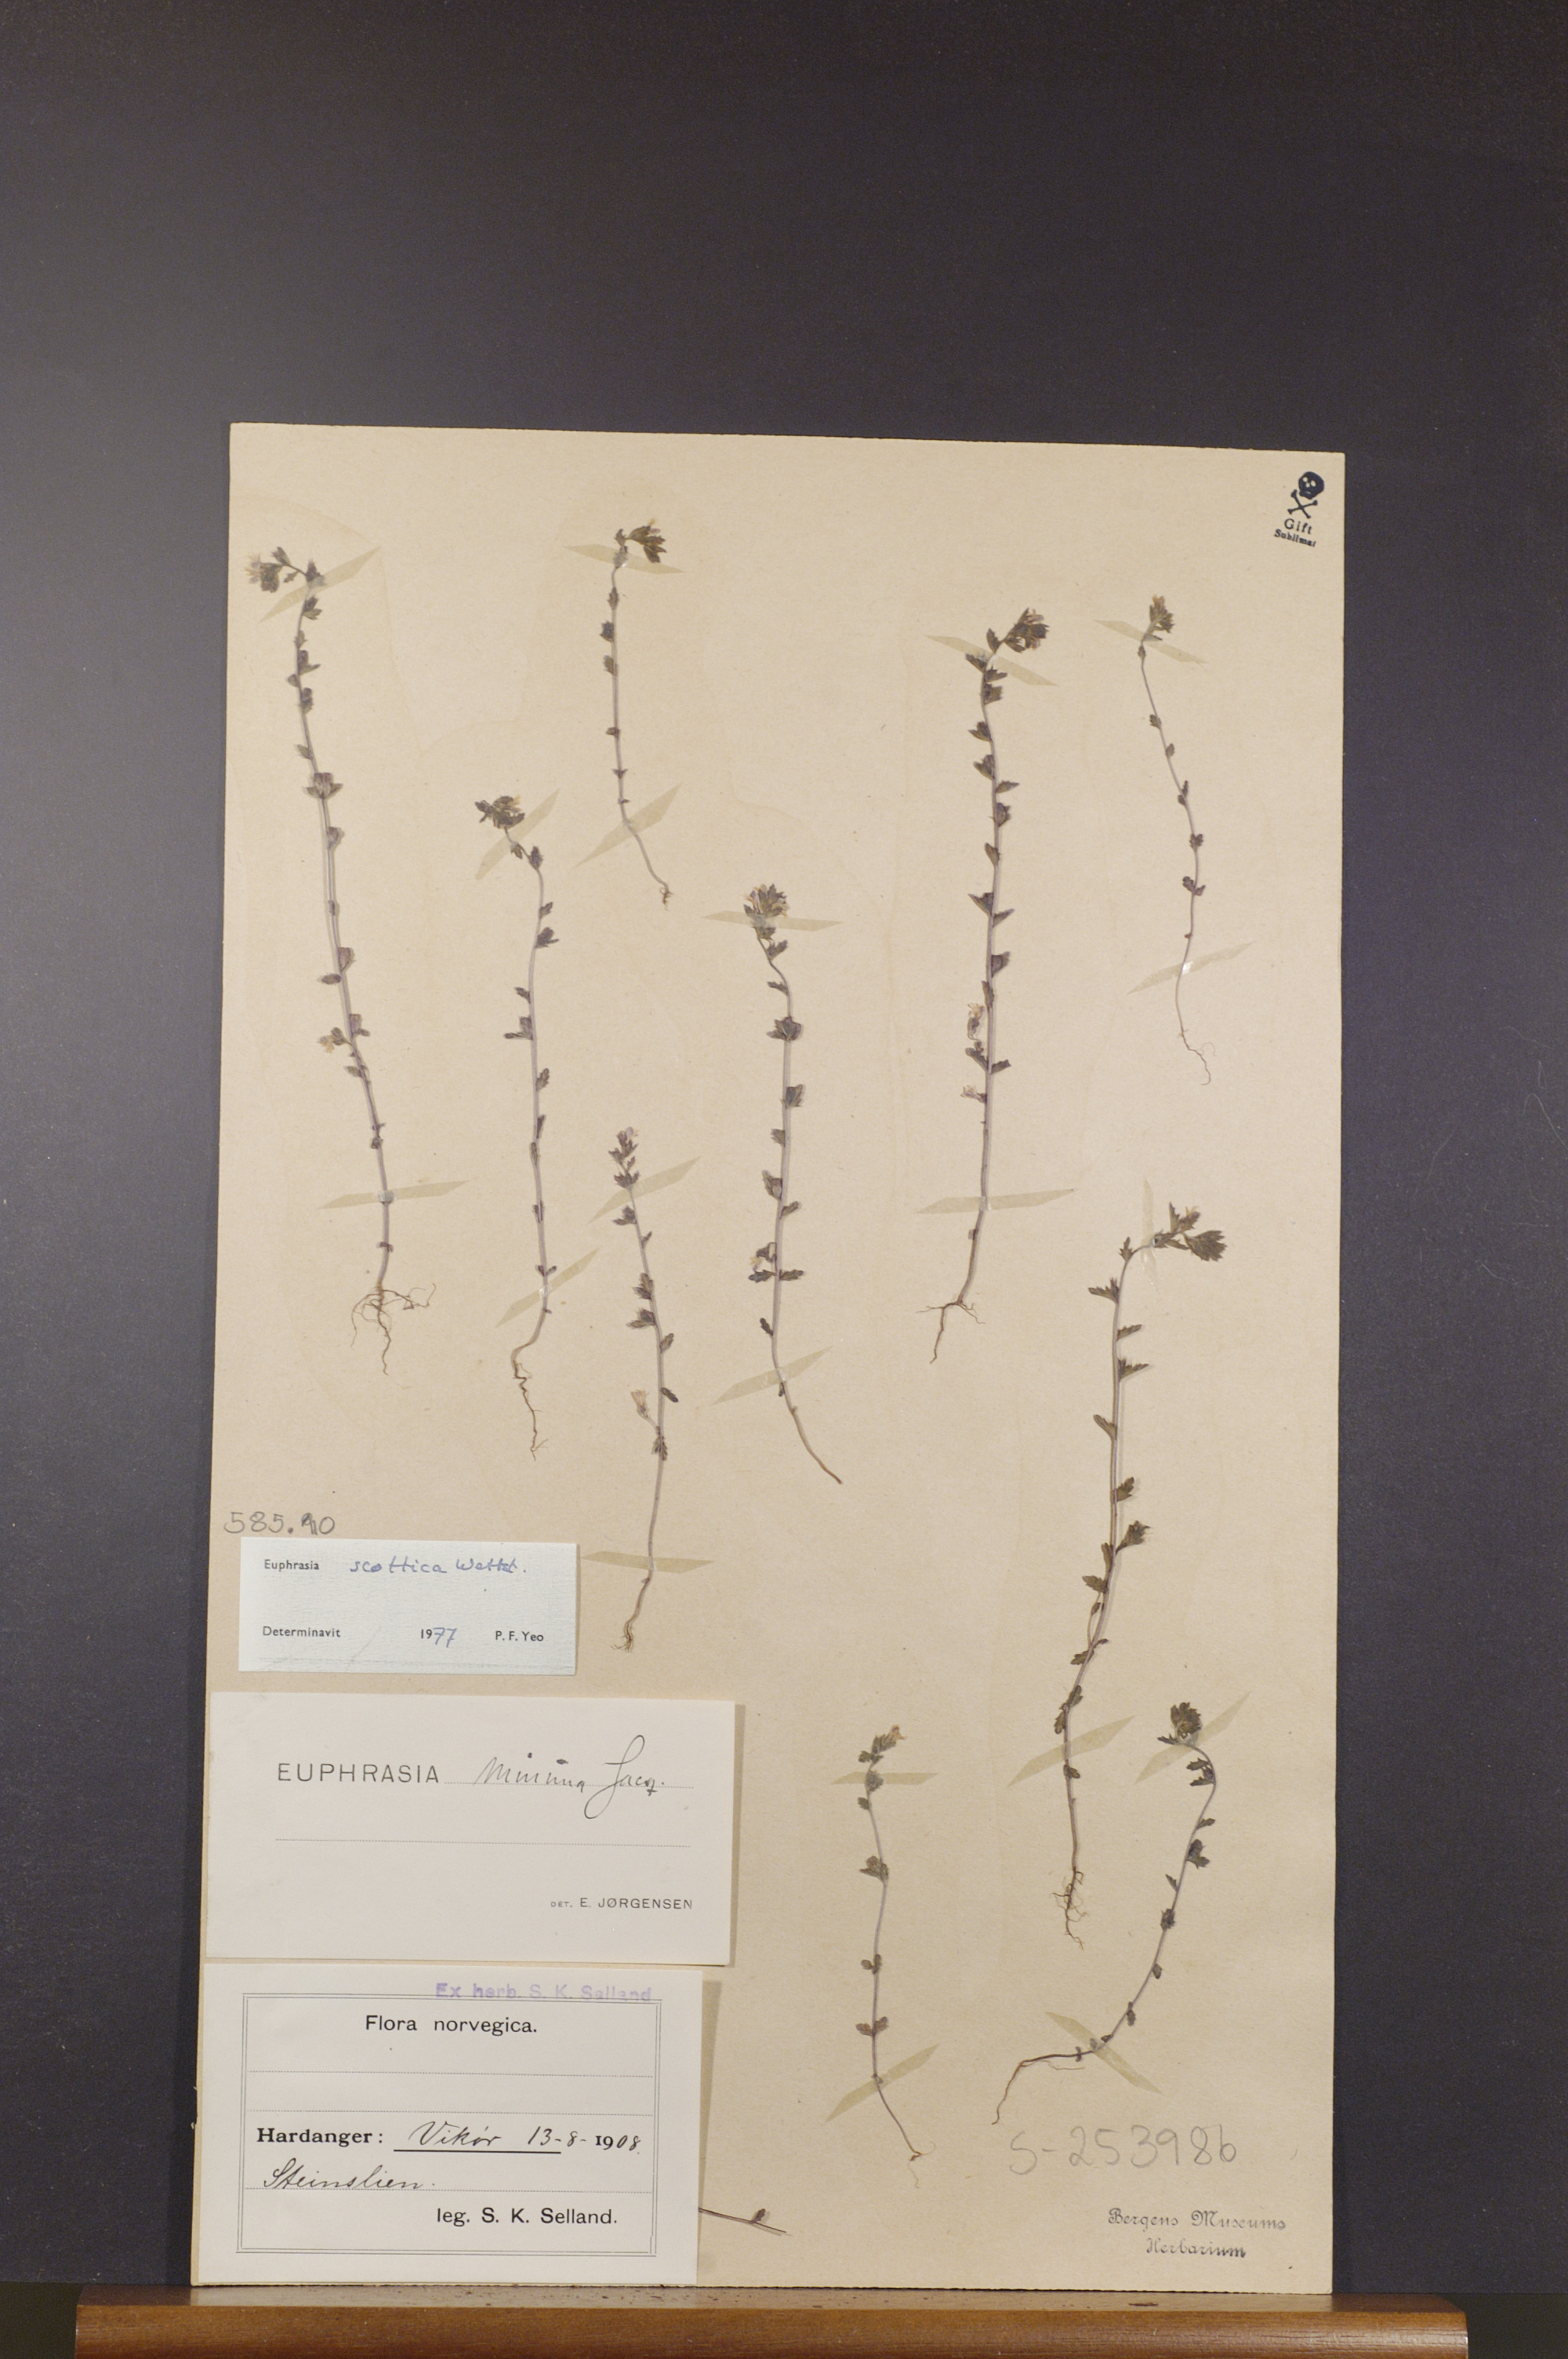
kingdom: Plantae
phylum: Tracheophyta
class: Magnoliopsida
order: Lamiales
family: Orobanchaceae
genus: Euphrasia
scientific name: Euphrasia scottica
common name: Slender scottish eyebright
